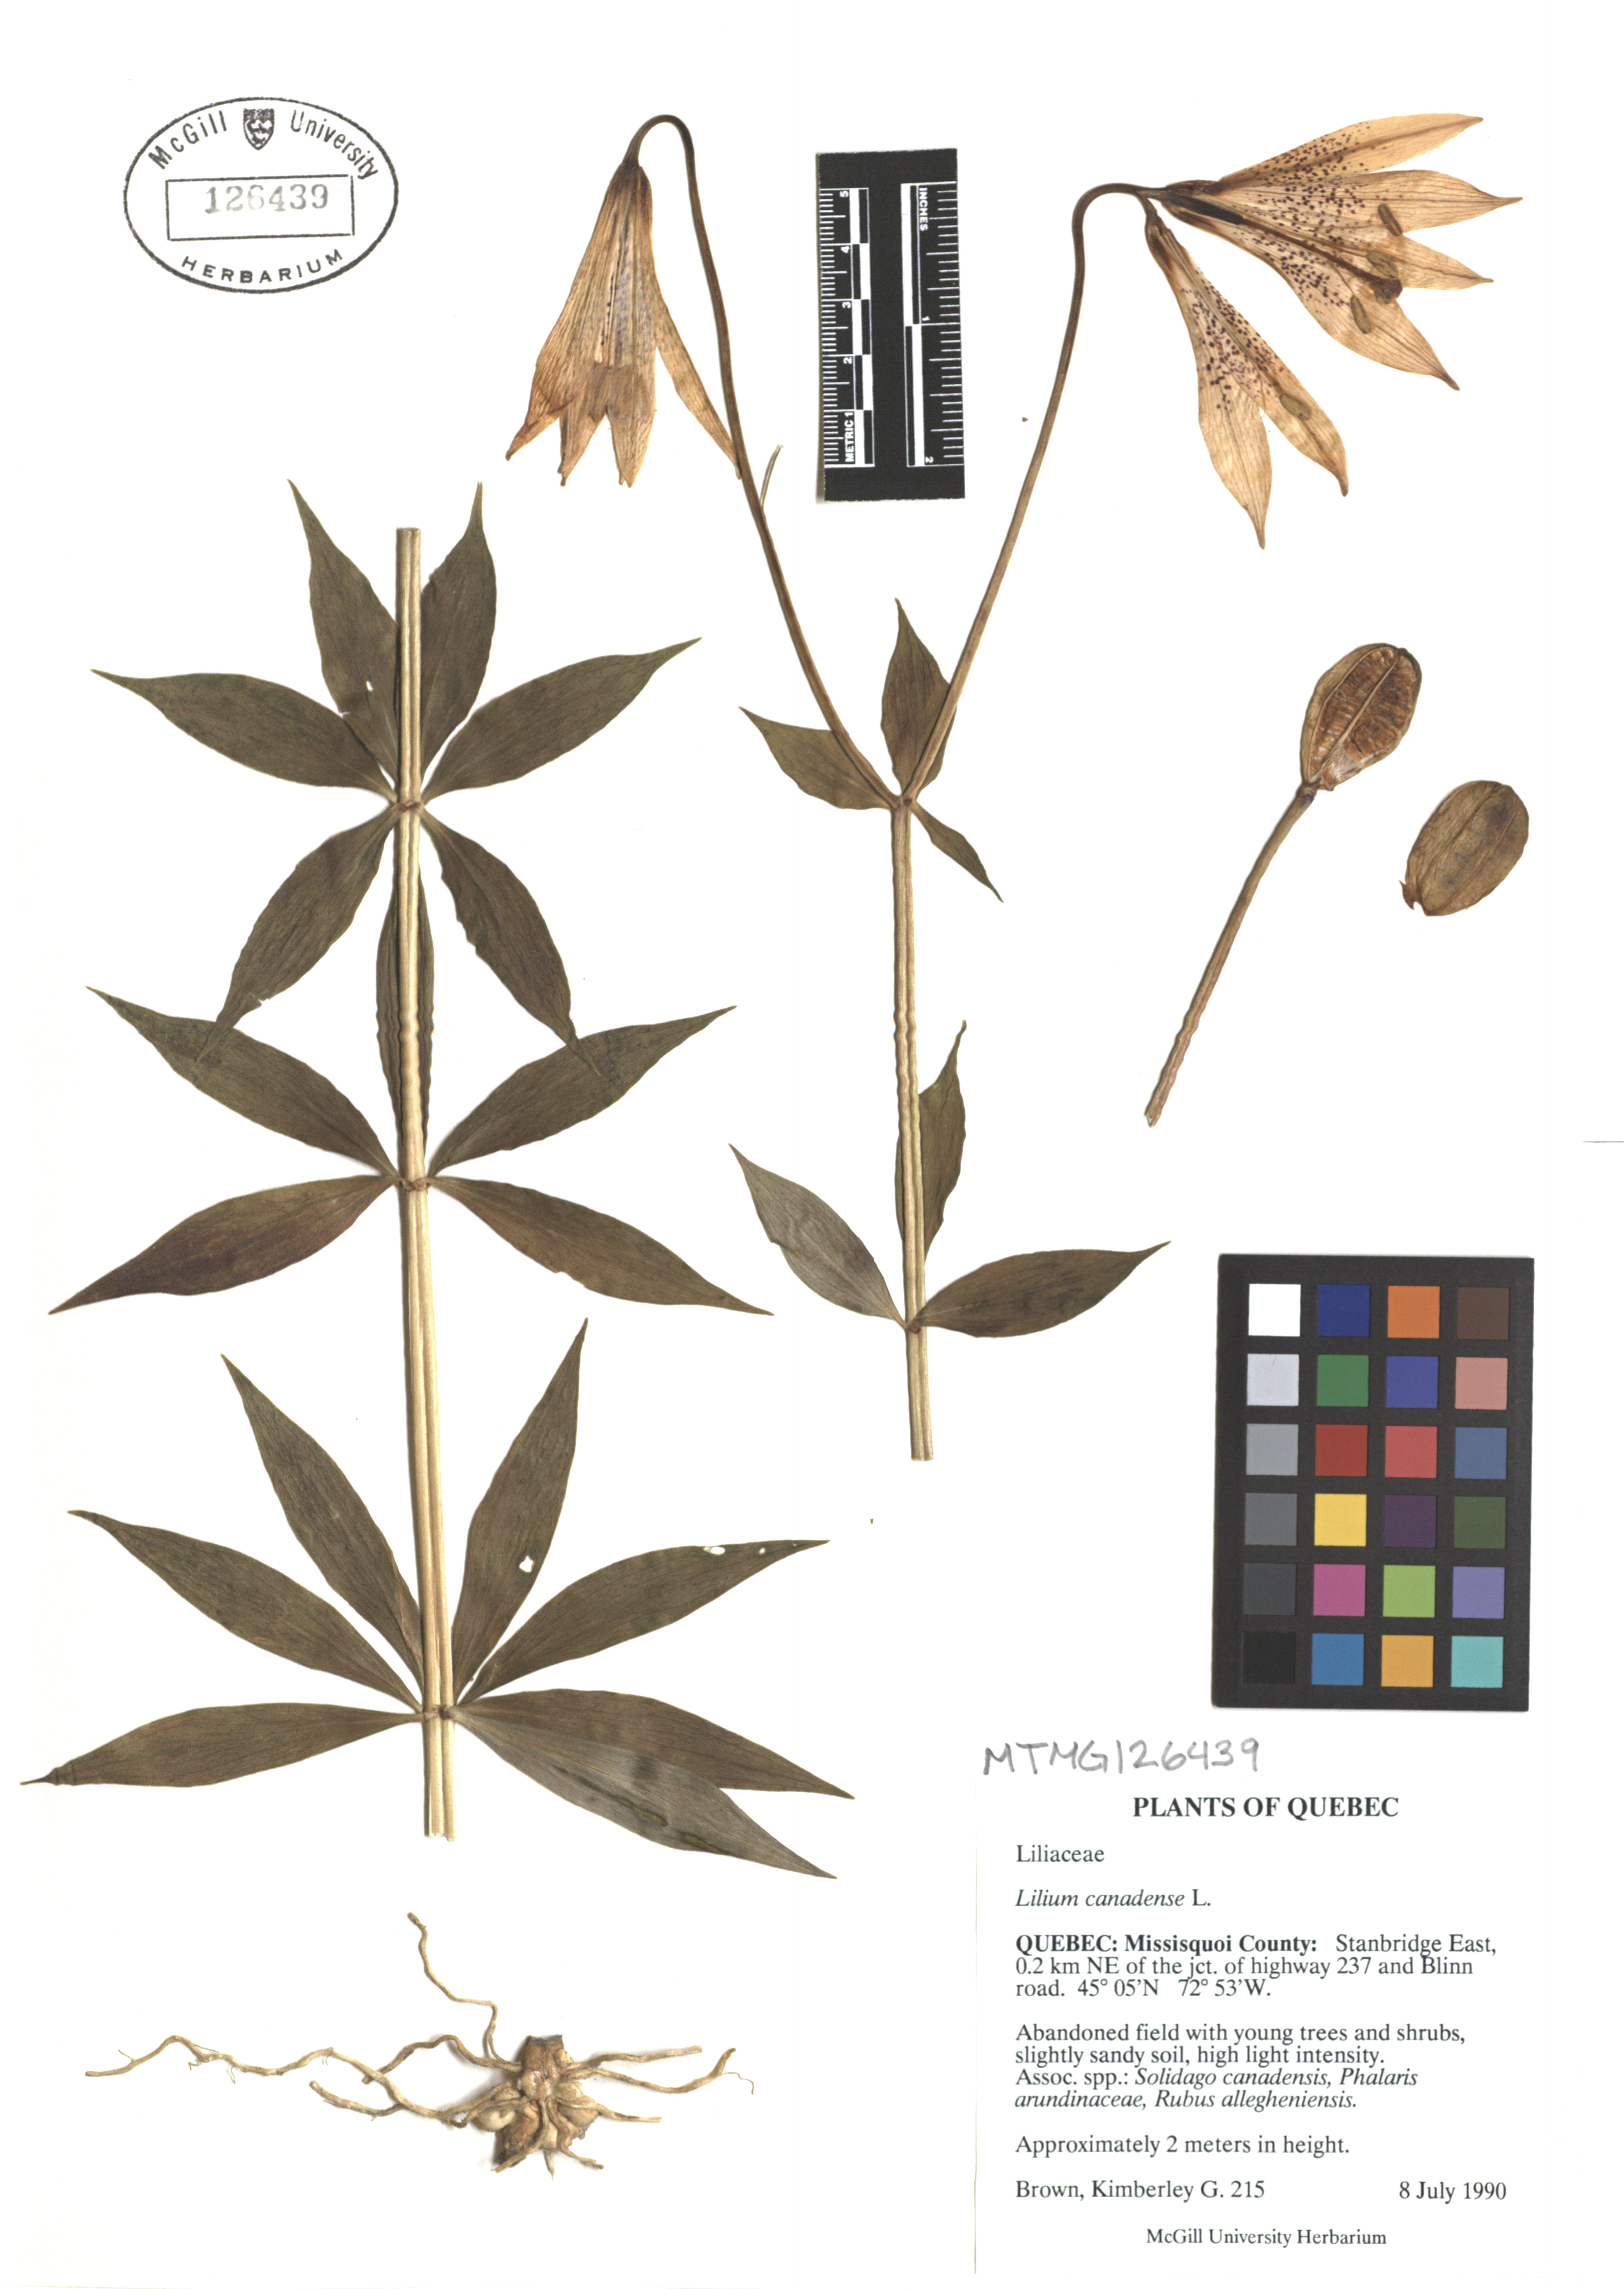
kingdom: Plantae
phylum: Tracheophyta
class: Liliopsida
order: Liliales
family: Liliaceae
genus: Lilium
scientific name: Lilium canadense
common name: Canada lily
